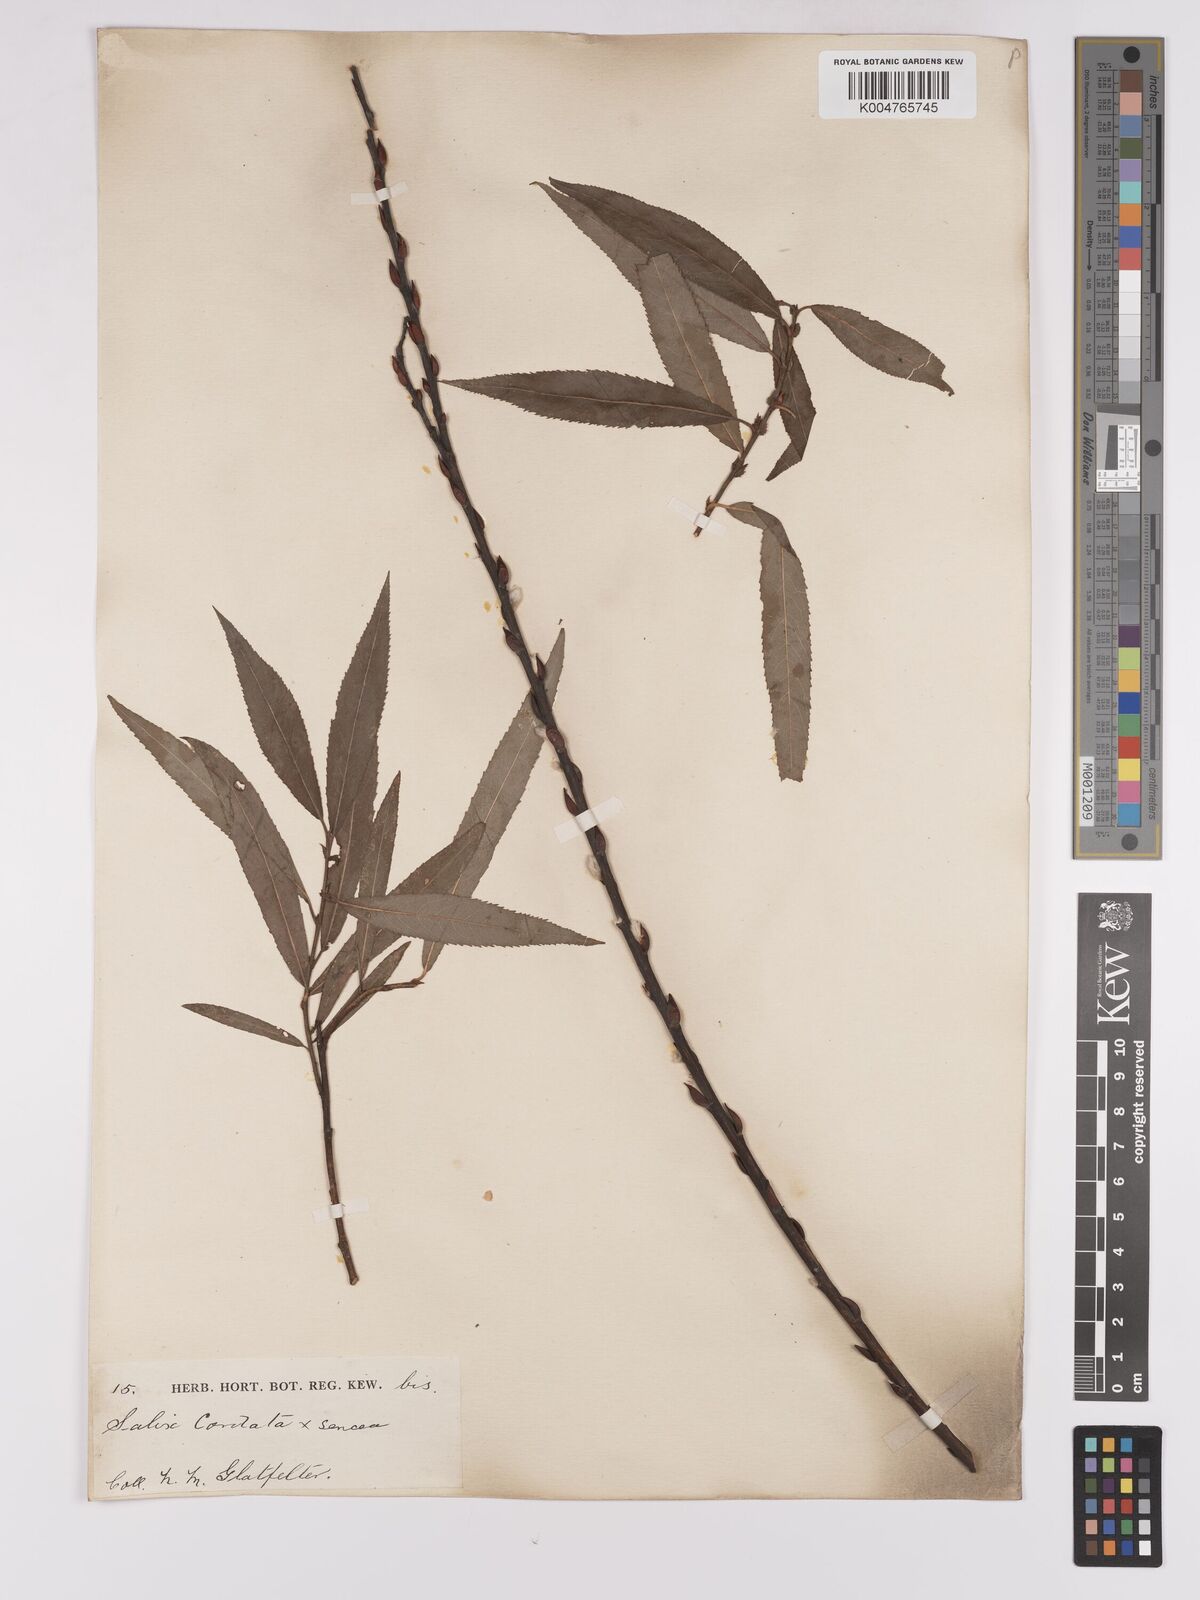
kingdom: Plantae
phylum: Tracheophyta
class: Magnoliopsida
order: Malpighiales
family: Salicaceae
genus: Salix
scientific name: Salix cordata
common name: Heart-leaf willow
